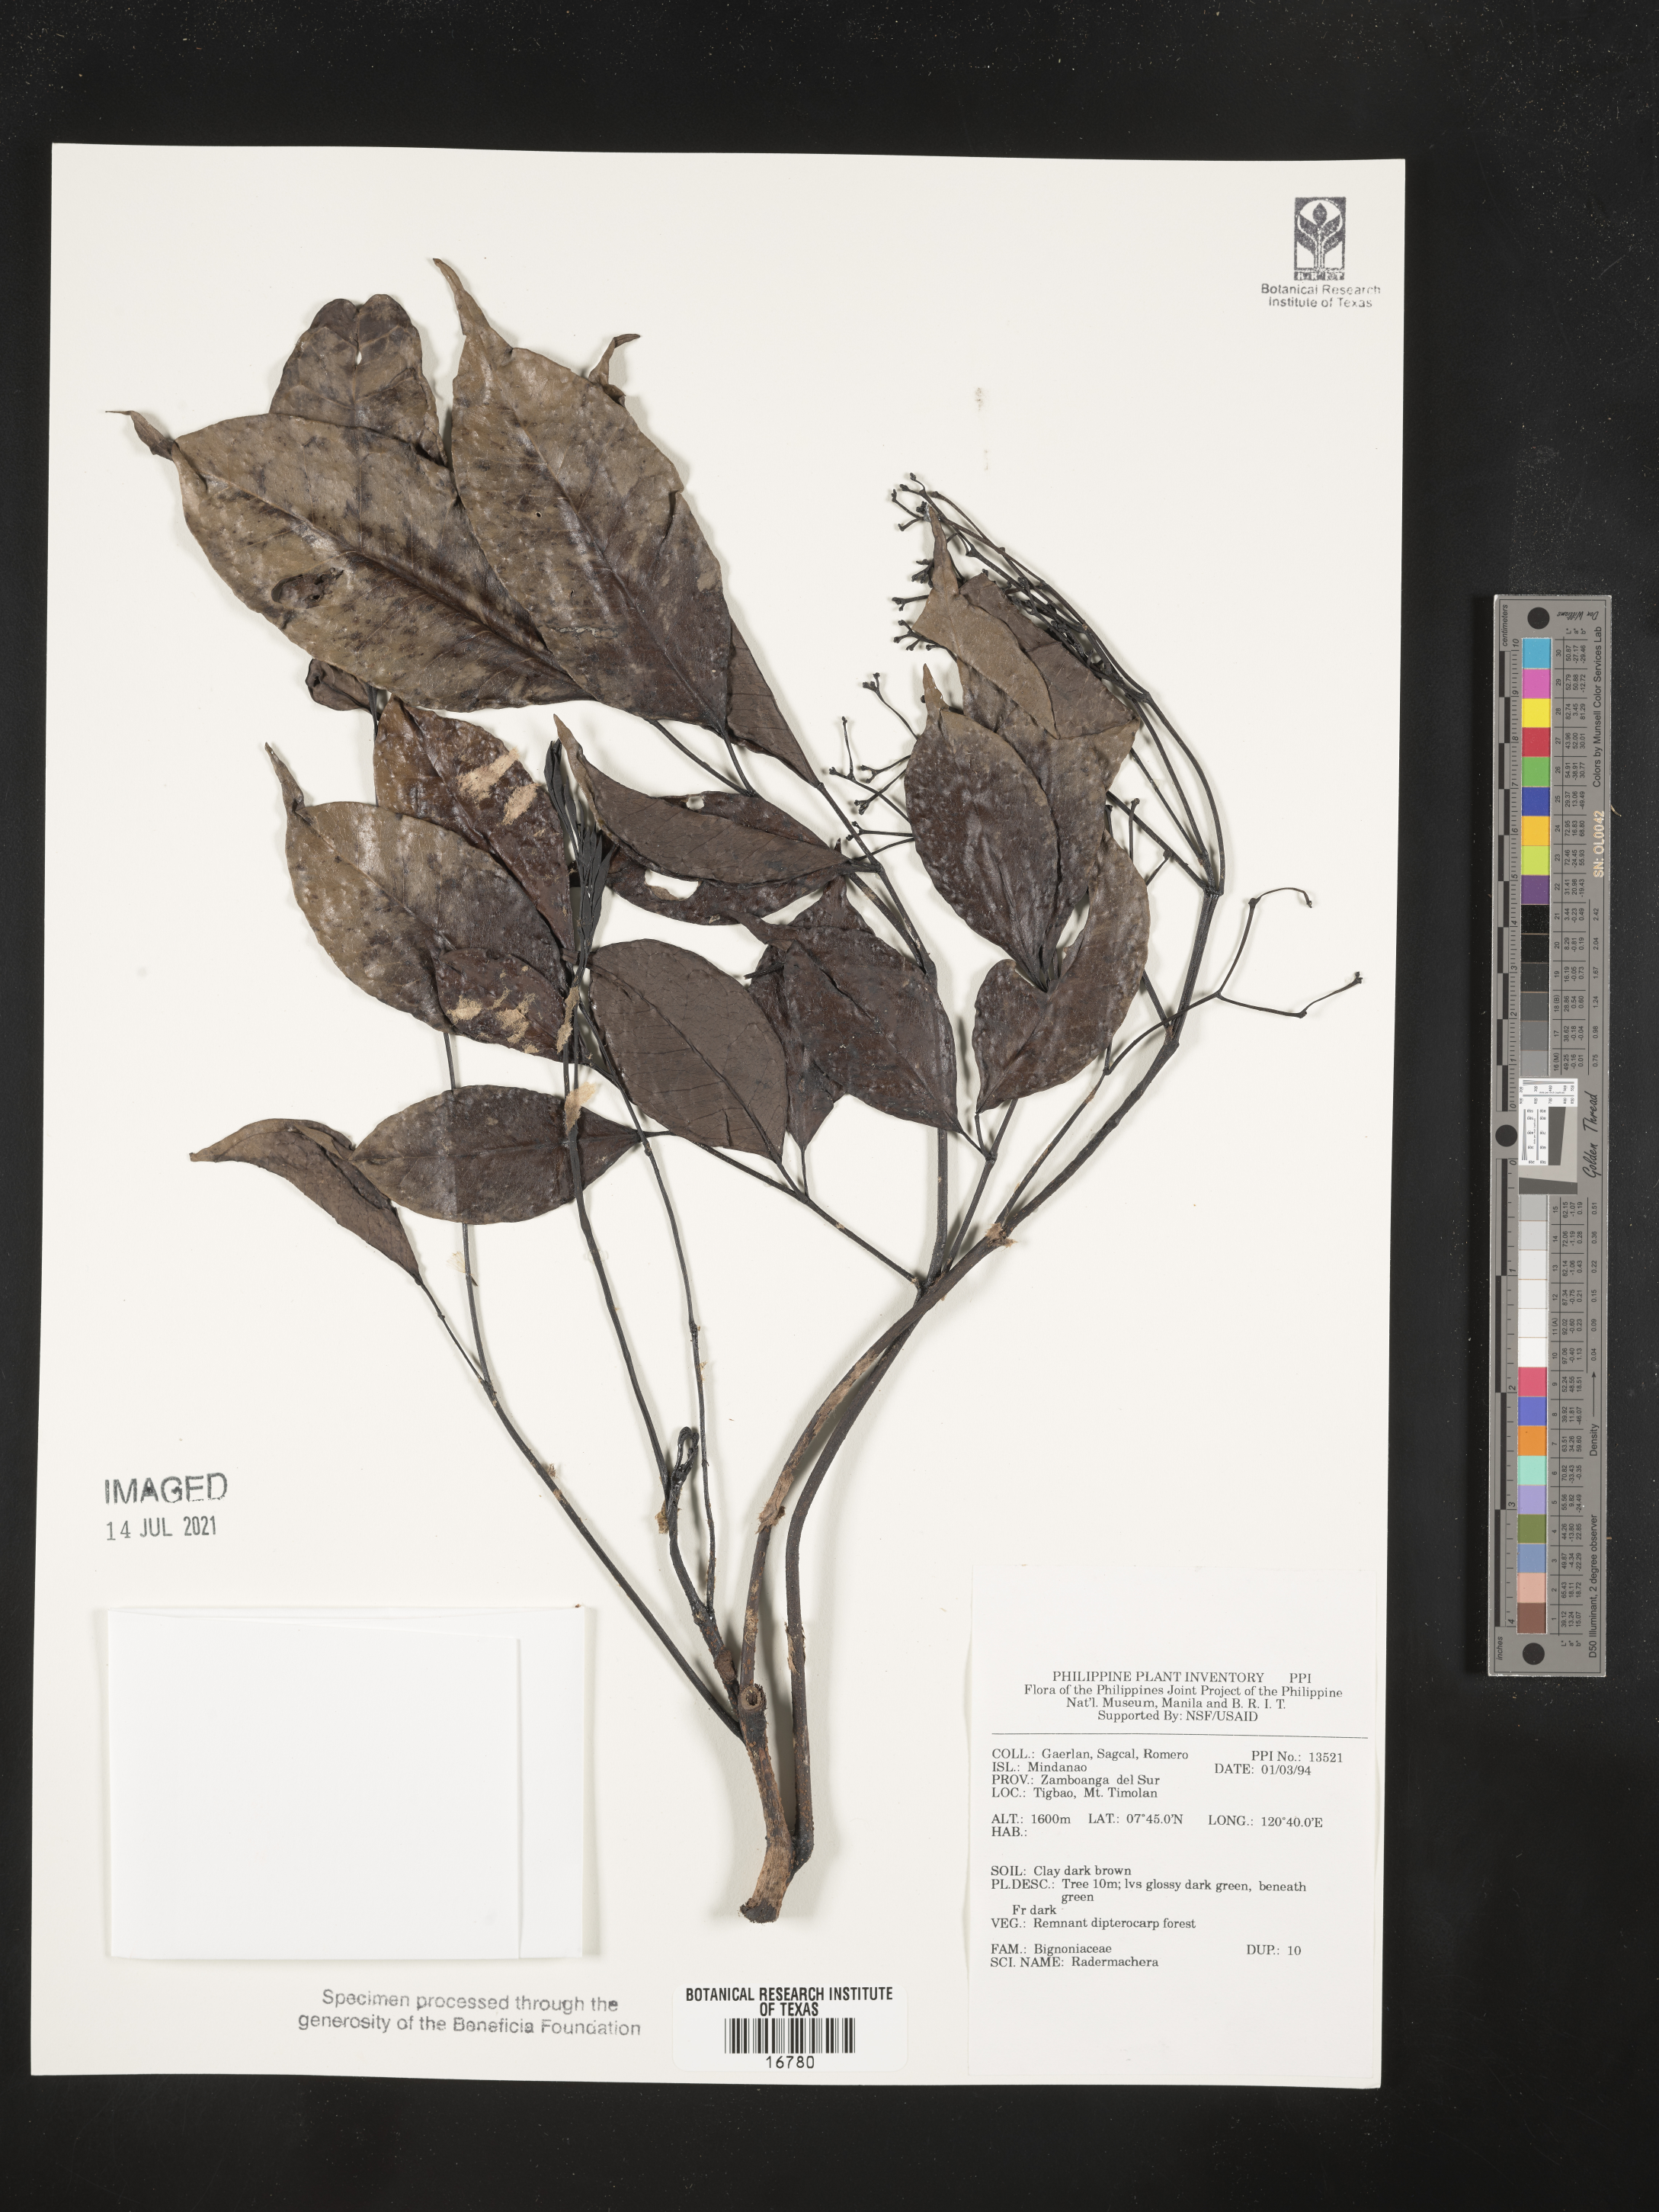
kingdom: Plantae
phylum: Tracheophyta
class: Magnoliopsida
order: Lamiales
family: Bignoniaceae
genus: Radermachera
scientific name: Radermachera
